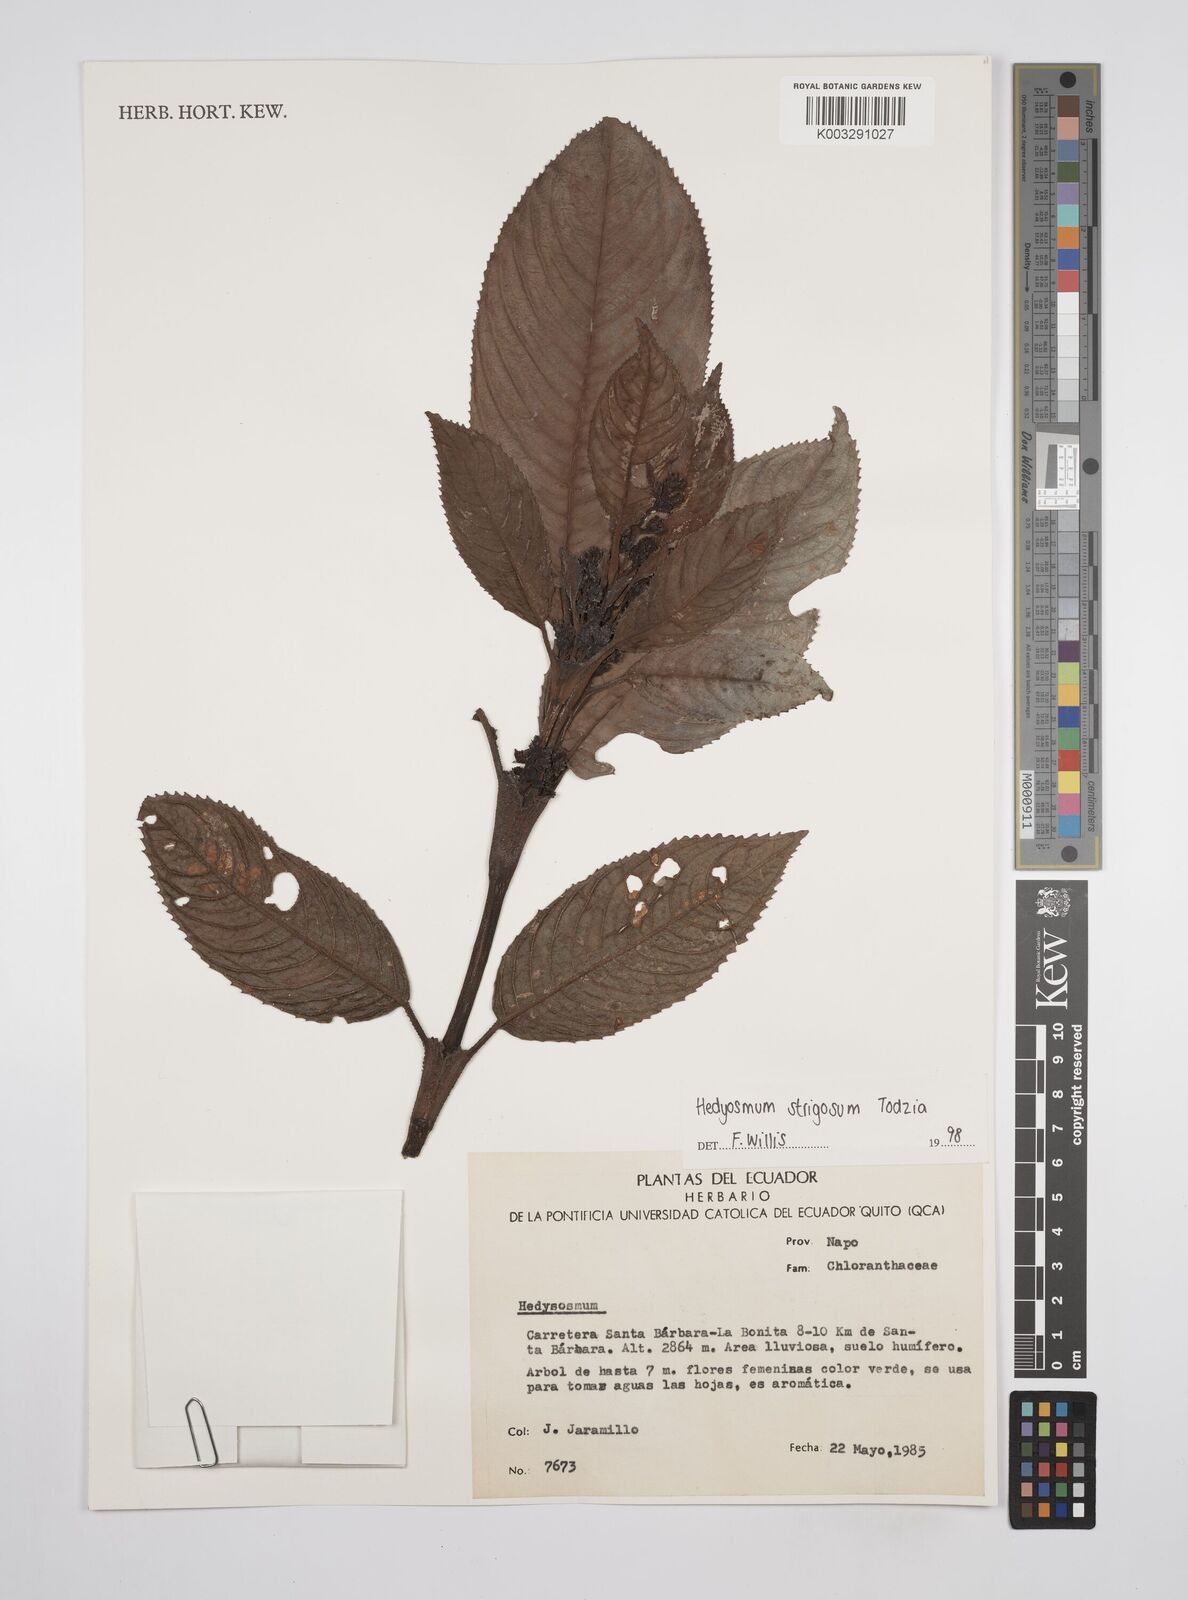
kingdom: Plantae
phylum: Tracheophyta
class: Magnoliopsida
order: Chloranthales
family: Chloranthaceae
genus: Hedyosmum
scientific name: Hedyosmum strigosum
